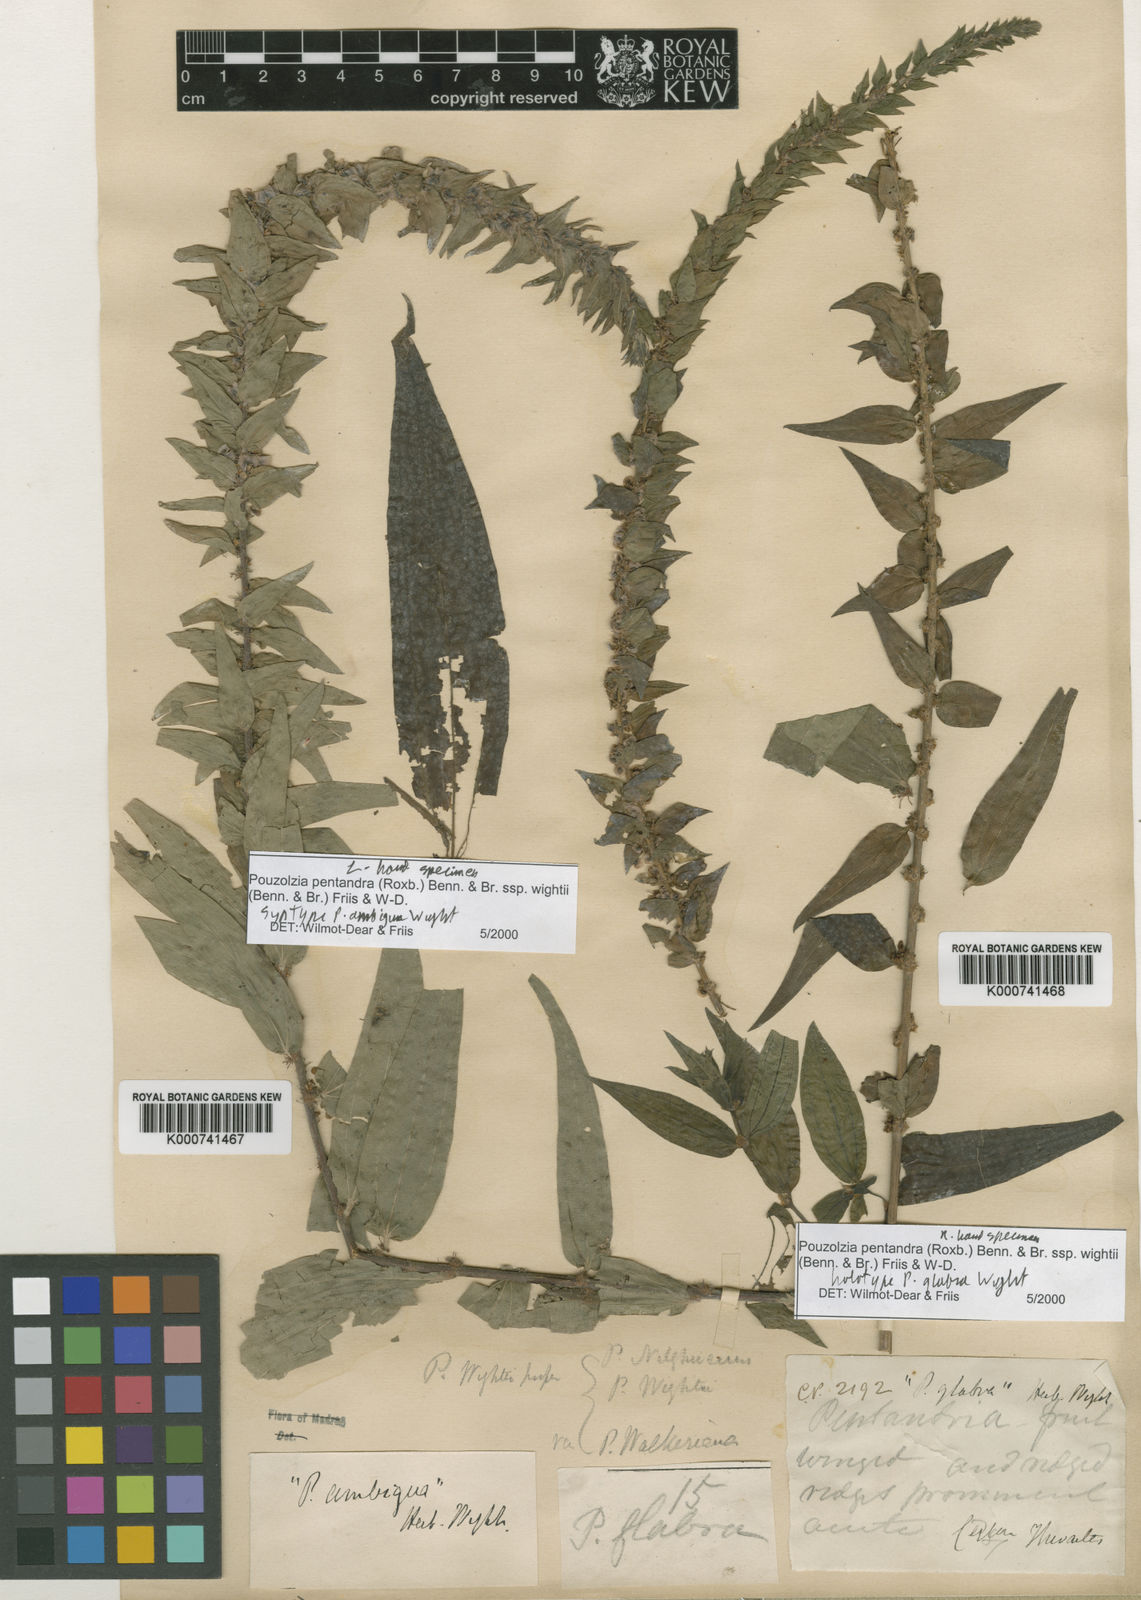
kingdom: Plantae
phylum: Tracheophyta
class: Magnoliopsida
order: Rosales
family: Urticaceae
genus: Gonostegia
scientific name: Gonostegia pentandra
